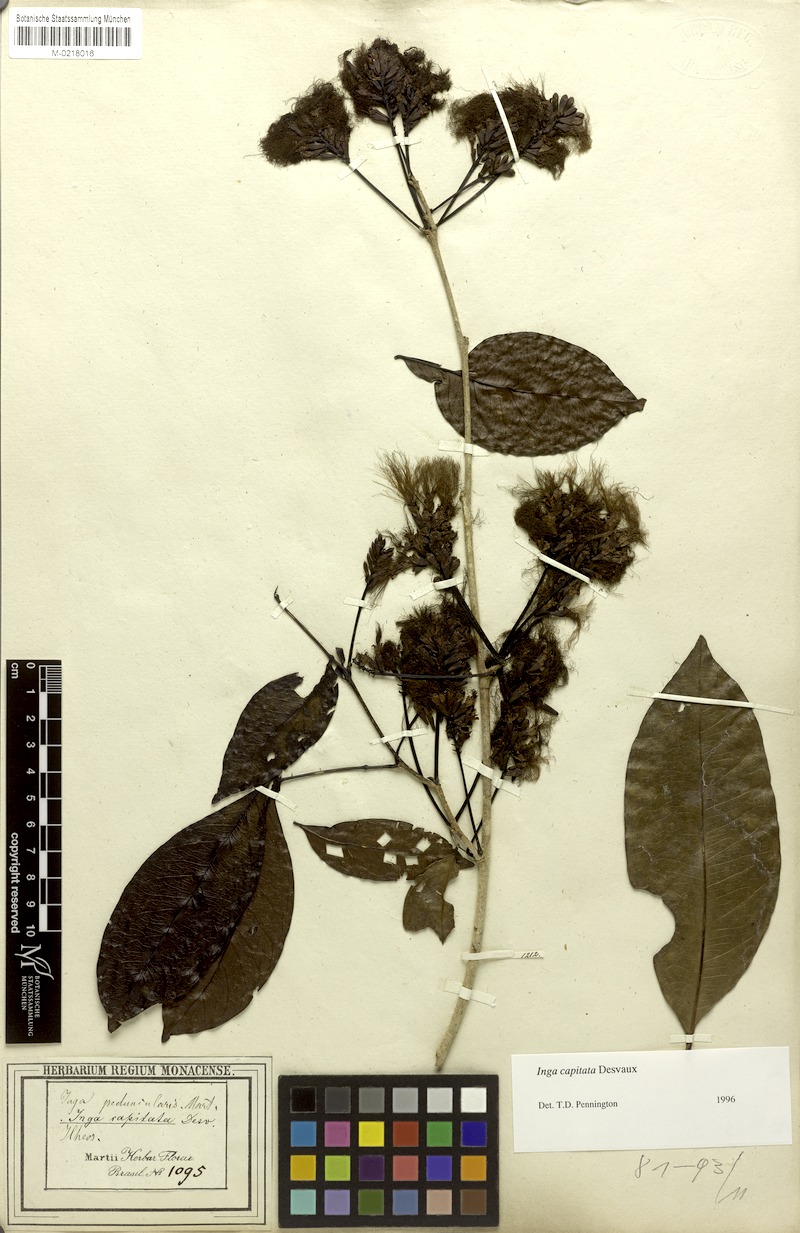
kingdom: Plantae
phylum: Tracheophyta
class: Magnoliopsida
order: Fabales
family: Fabaceae
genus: Inga
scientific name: Inga capitata
